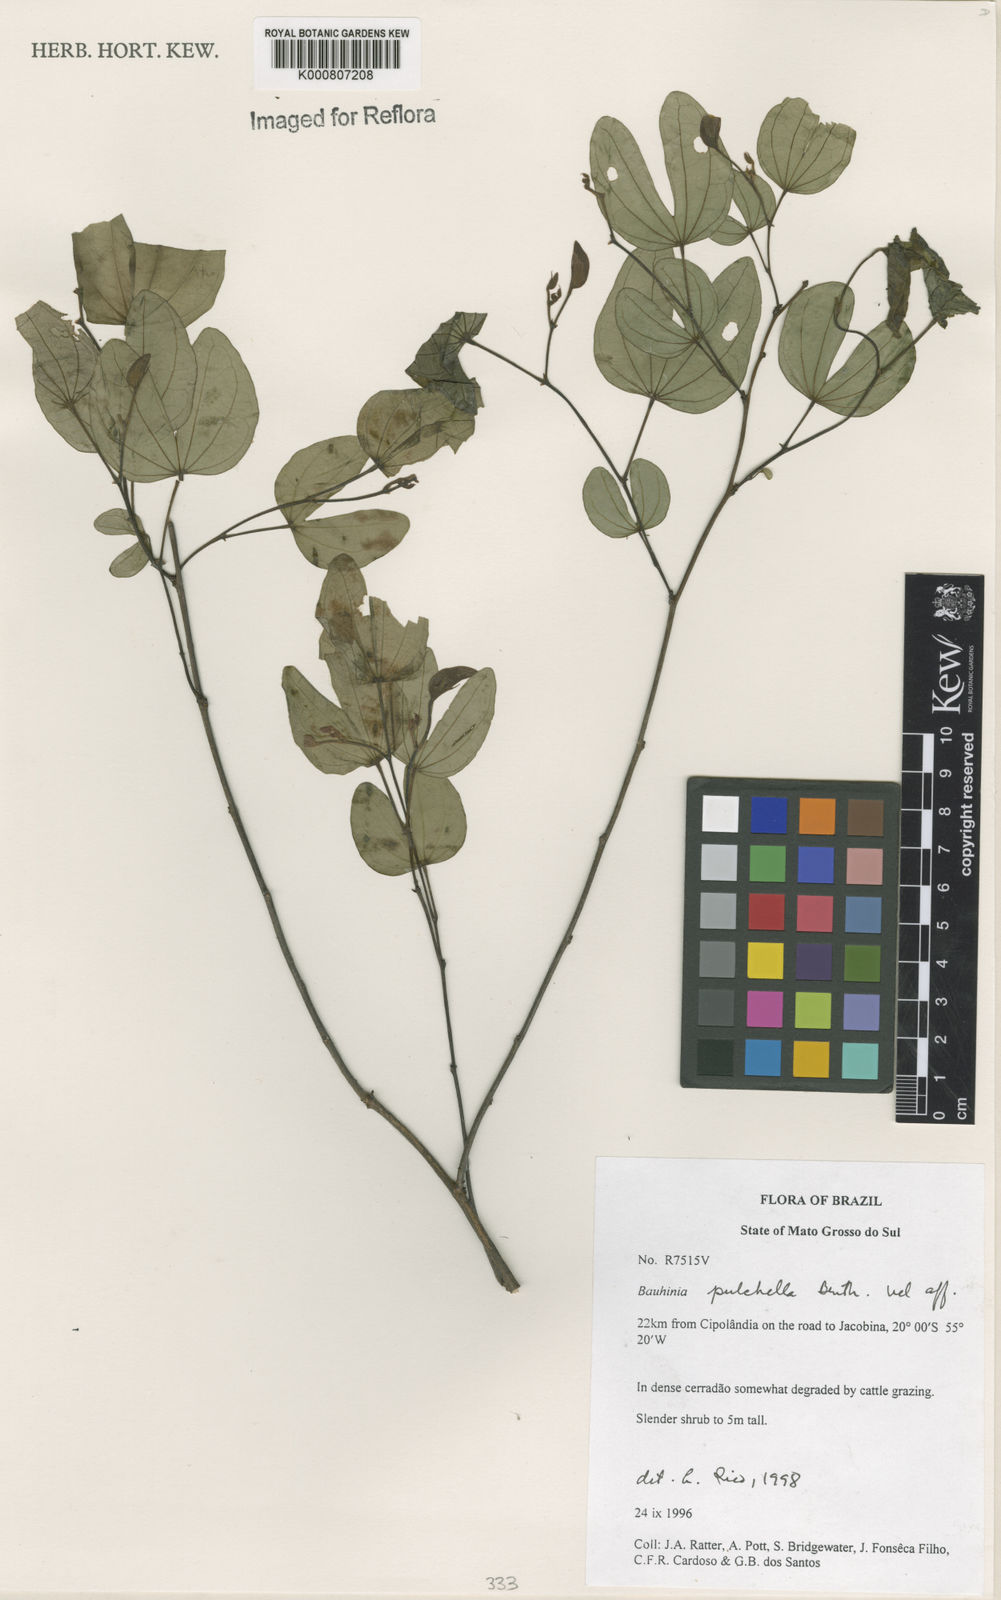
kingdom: Plantae
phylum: Tracheophyta
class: Magnoliopsida
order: Fabales
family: Fabaceae
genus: Bauhinia
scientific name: Bauhinia pulchella
